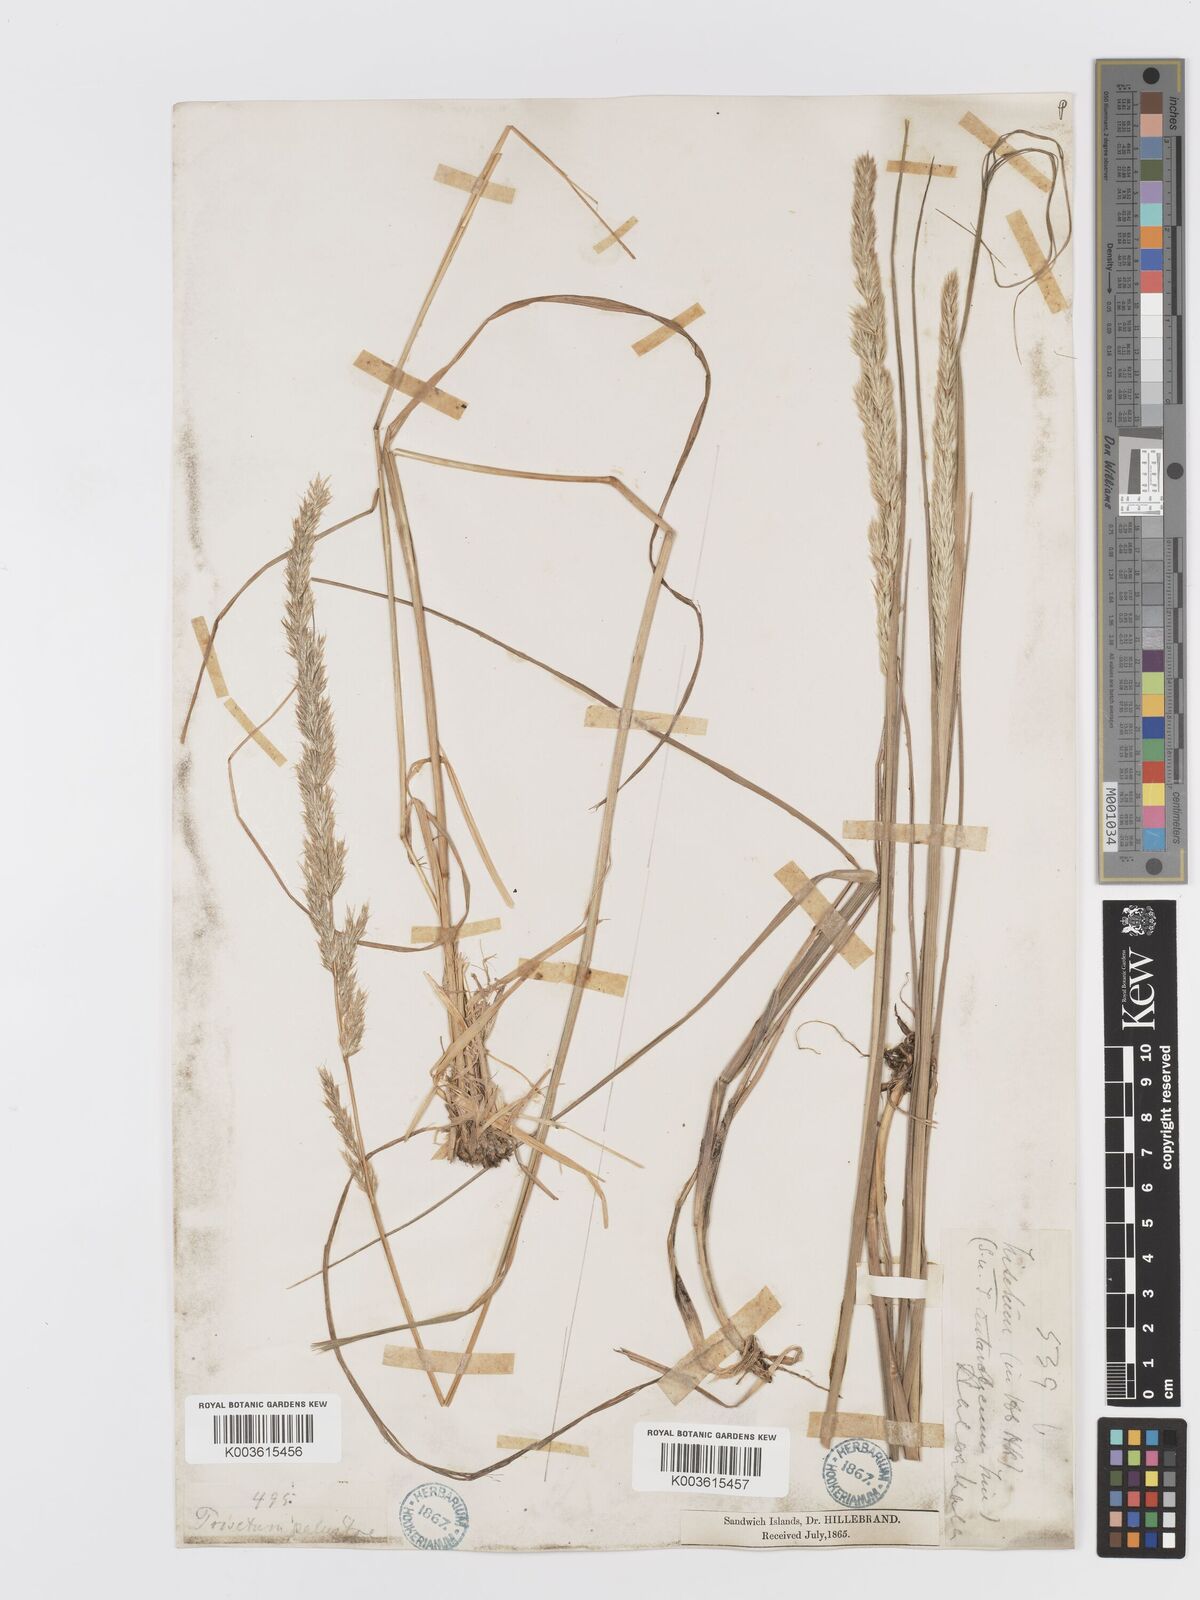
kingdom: Plantae
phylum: Tracheophyta
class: Liliopsida
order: Poales
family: Poaceae
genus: Trisetum
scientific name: Trisetum glomeratum
